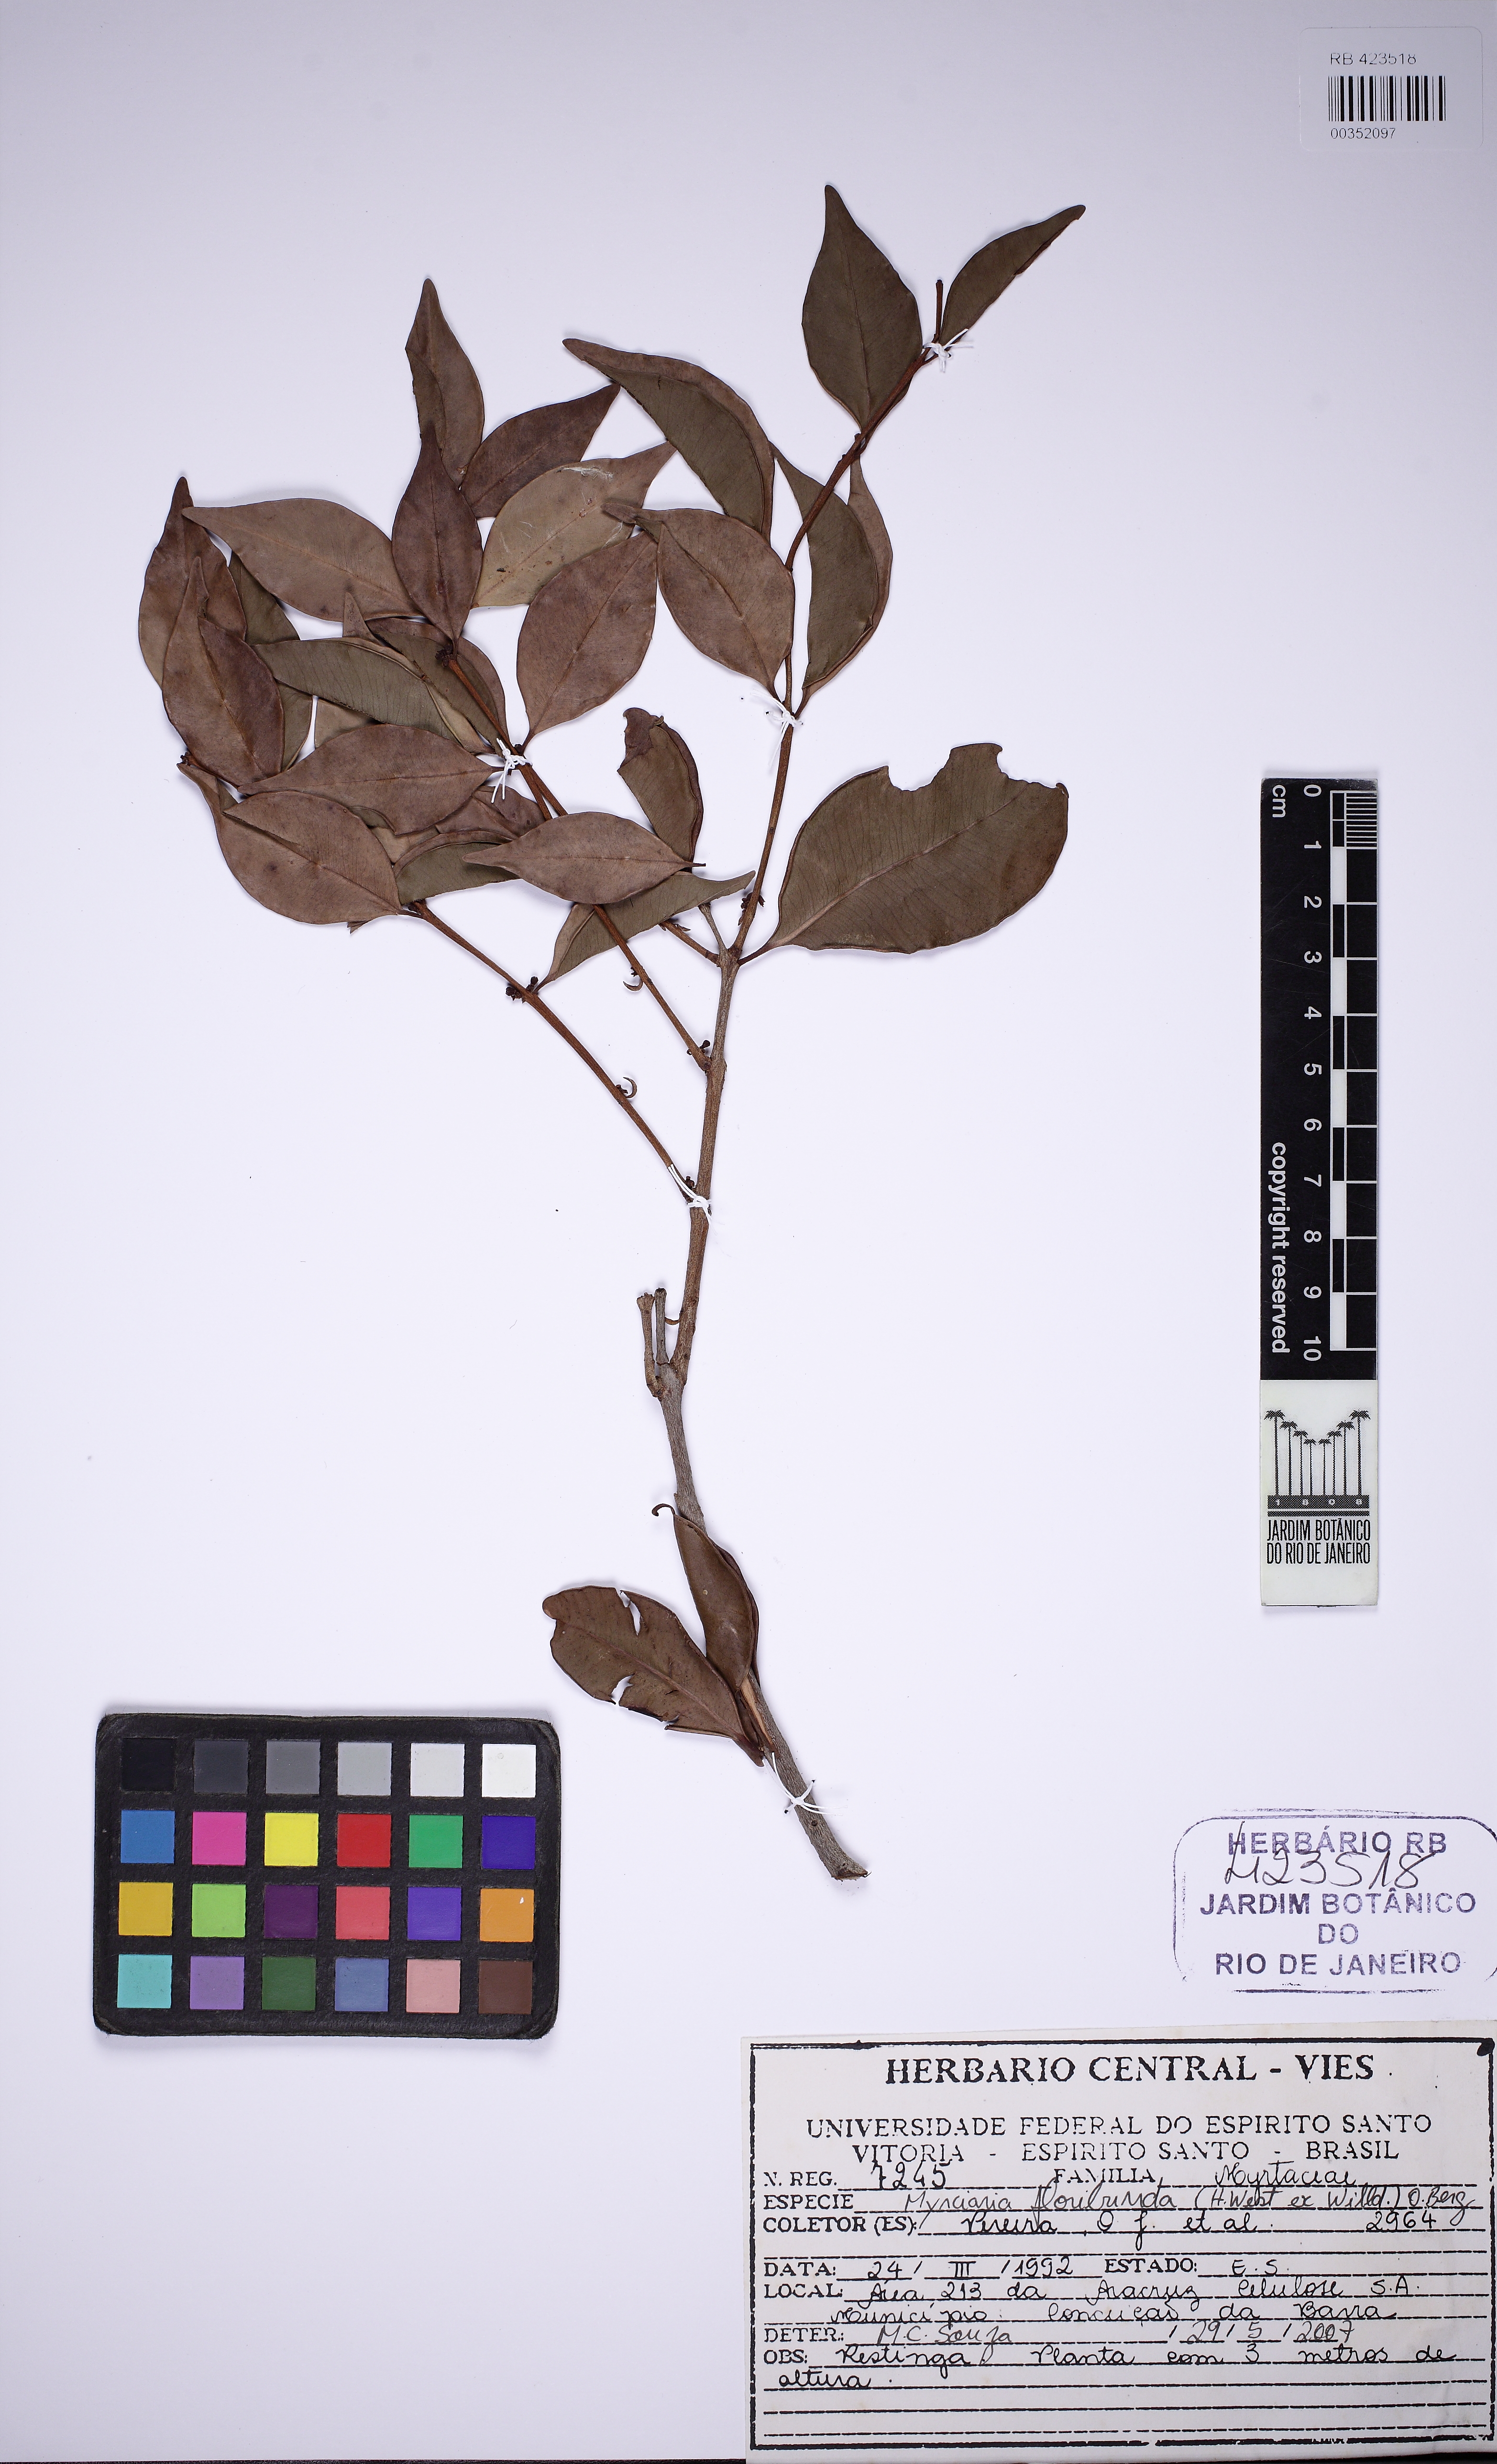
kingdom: Plantae
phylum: Tracheophyta
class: Magnoliopsida
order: Myrtales
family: Myrtaceae
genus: Myrciaria
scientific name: Myrciaria floribunda
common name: Guavaberry
